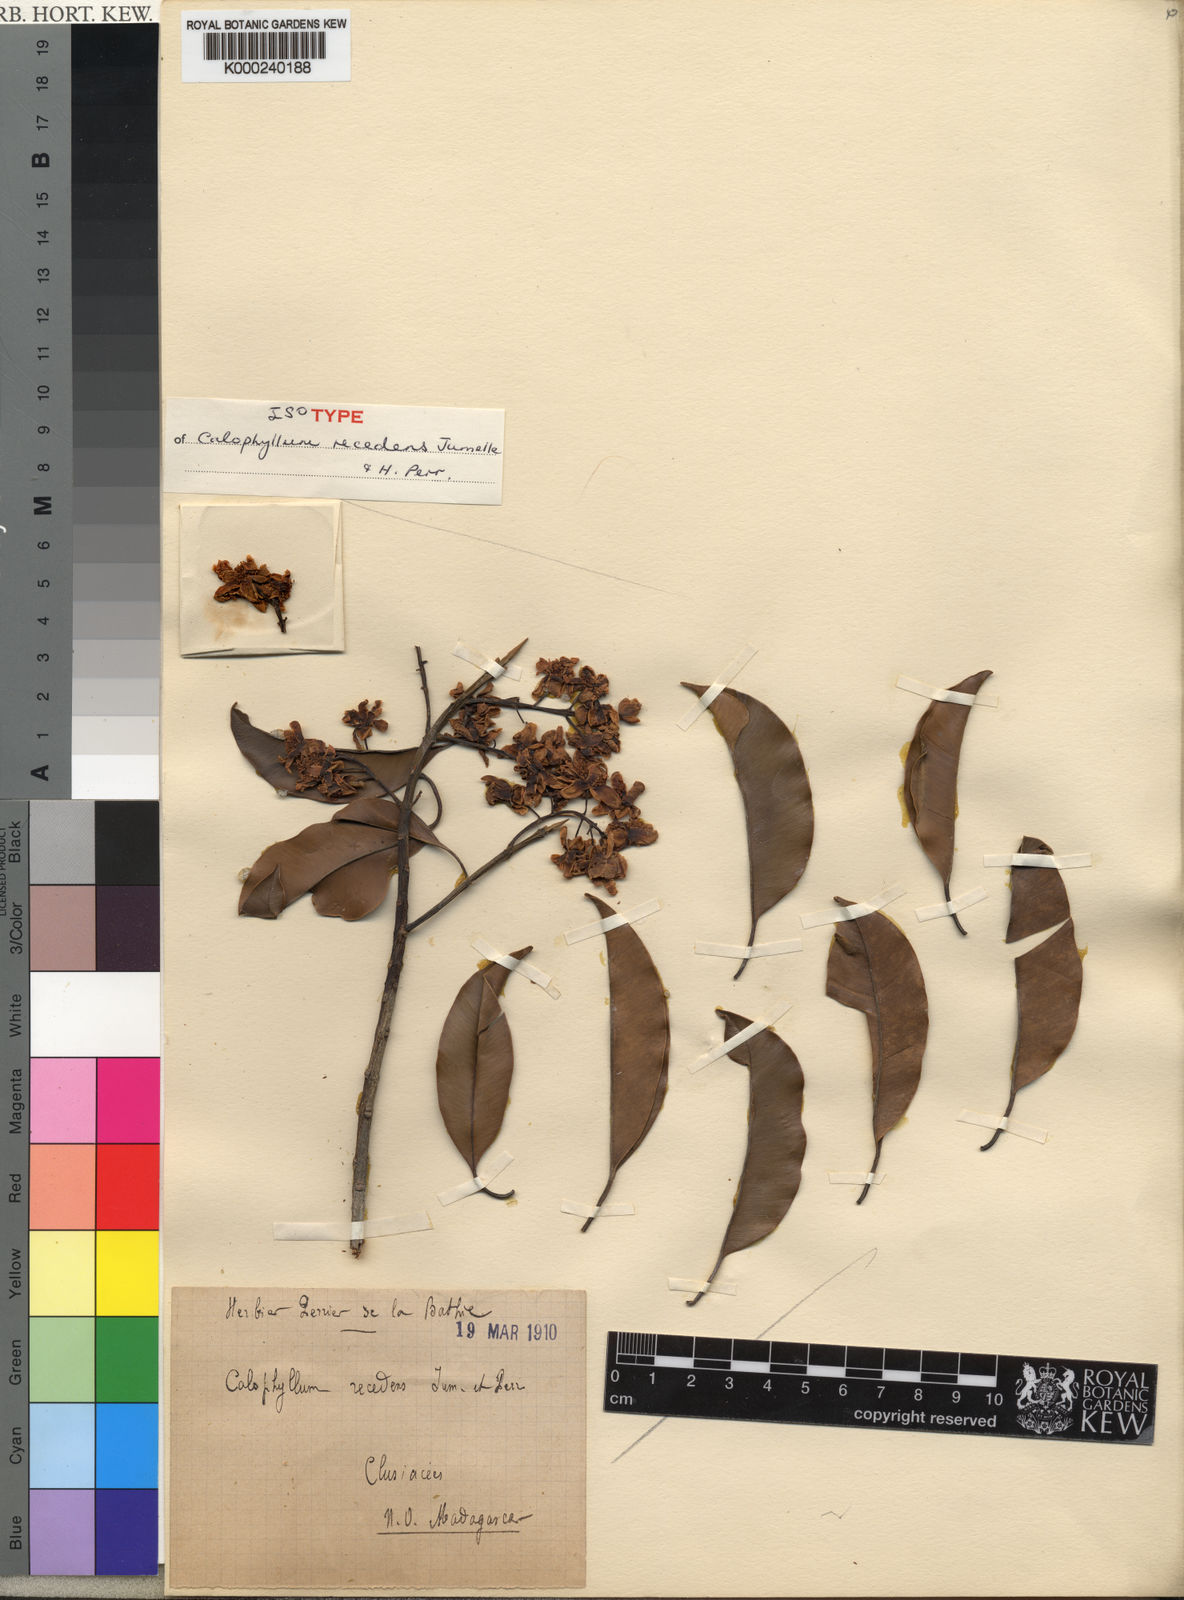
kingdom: Plantae
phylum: Tracheophyta
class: Magnoliopsida
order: Malpighiales
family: Calophyllaceae
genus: Calophyllum
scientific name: Calophyllum recedens
